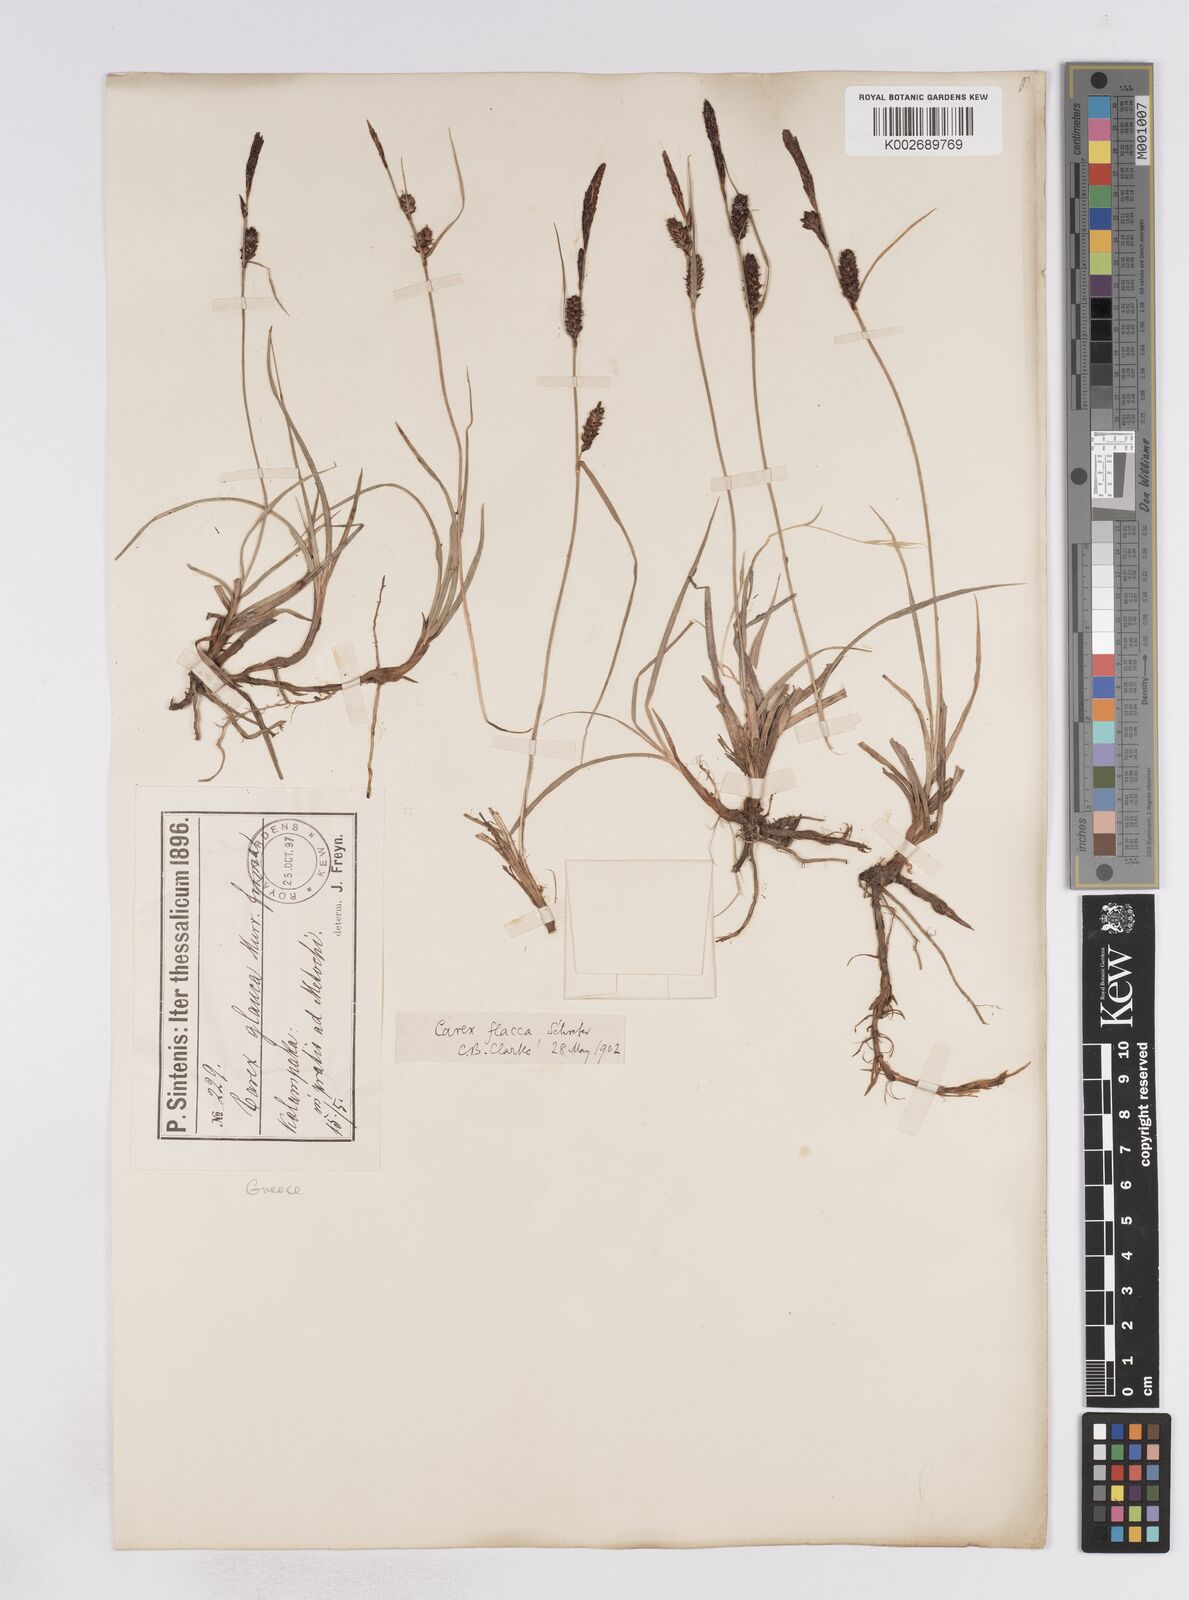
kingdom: Plantae
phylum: Tracheophyta
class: Liliopsida
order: Poales
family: Cyperaceae
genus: Carex
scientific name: Carex flacca
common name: Glaucous sedge
